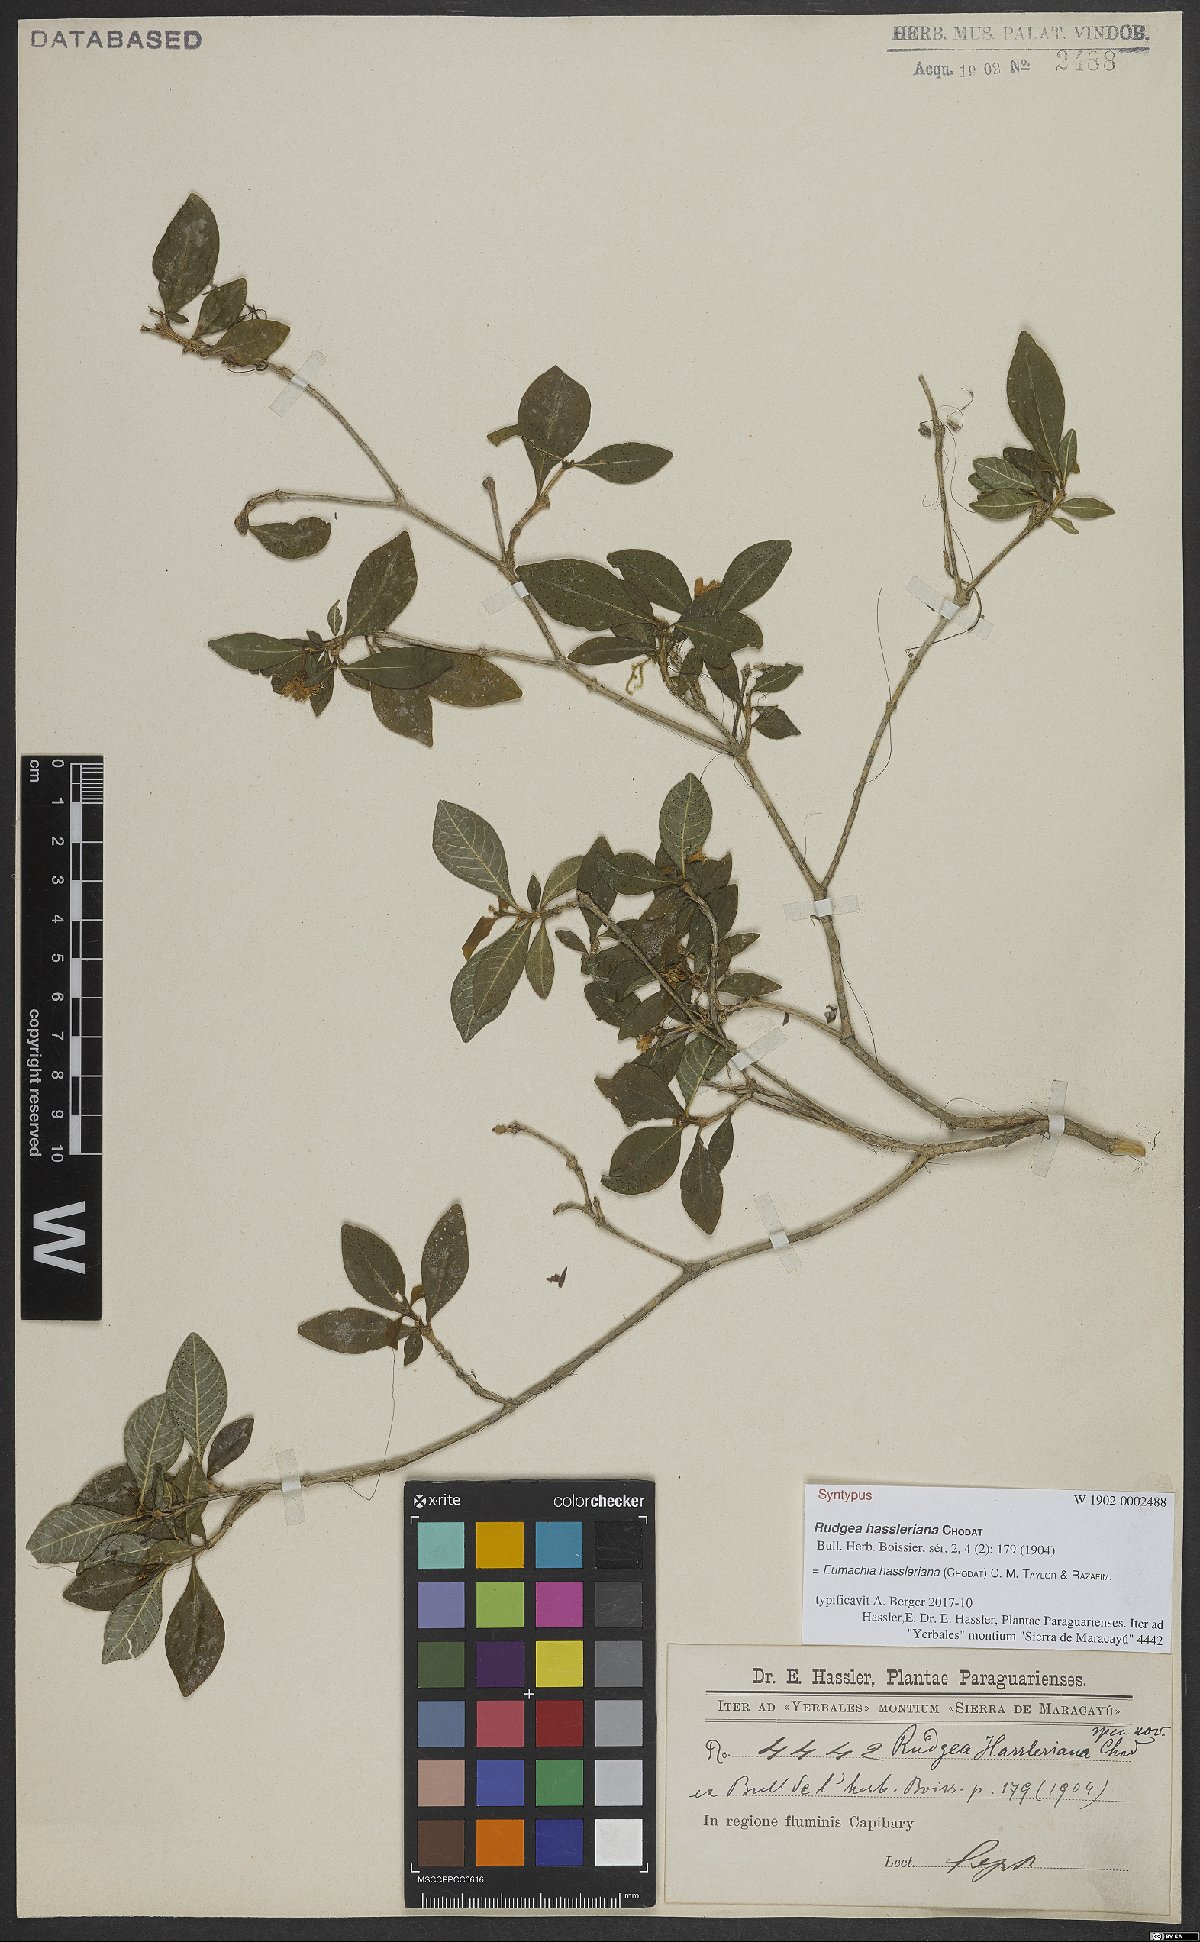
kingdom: Plantae
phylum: Tracheophyta
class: Magnoliopsida
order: Gentianales
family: Rubiaceae
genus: Eumachia
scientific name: Eumachia hassleriana
